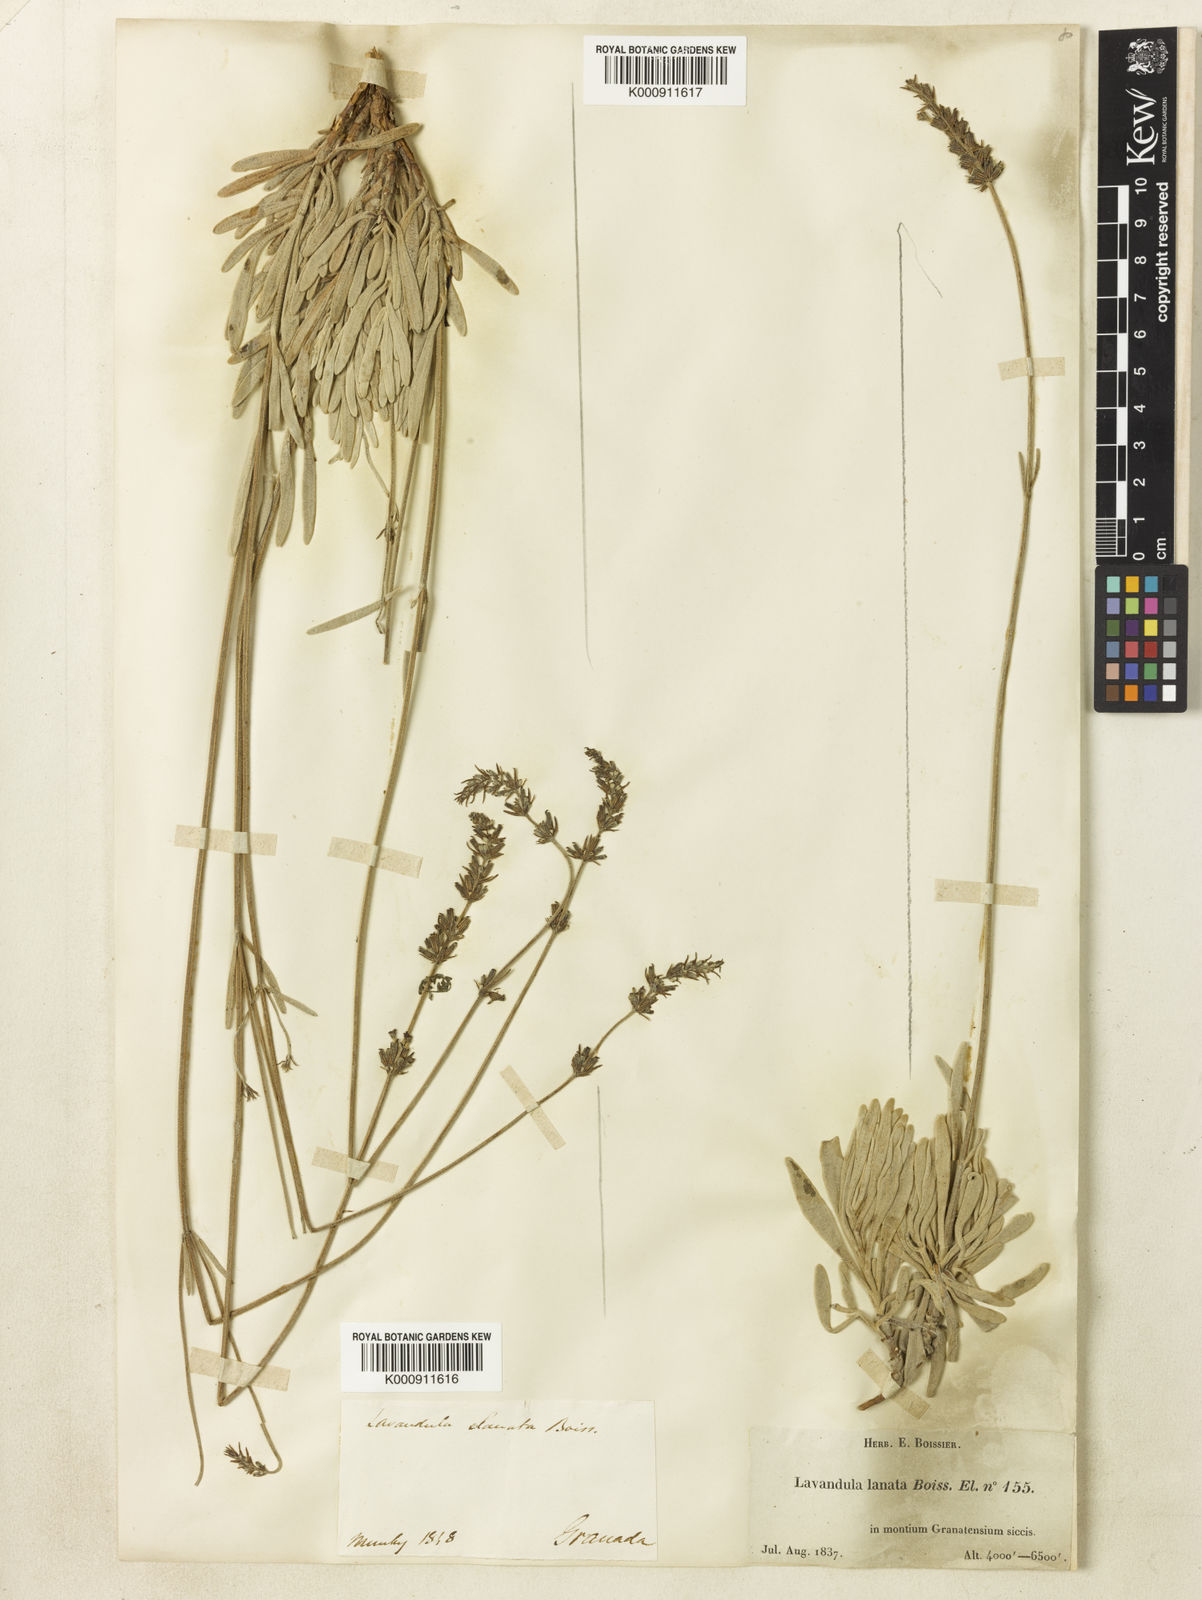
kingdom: Plantae
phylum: Tracheophyta
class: Magnoliopsida
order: Lamiales
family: Lamiaceae
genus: Lavandula
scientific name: Lavandula lanata
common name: Woolly lavender
